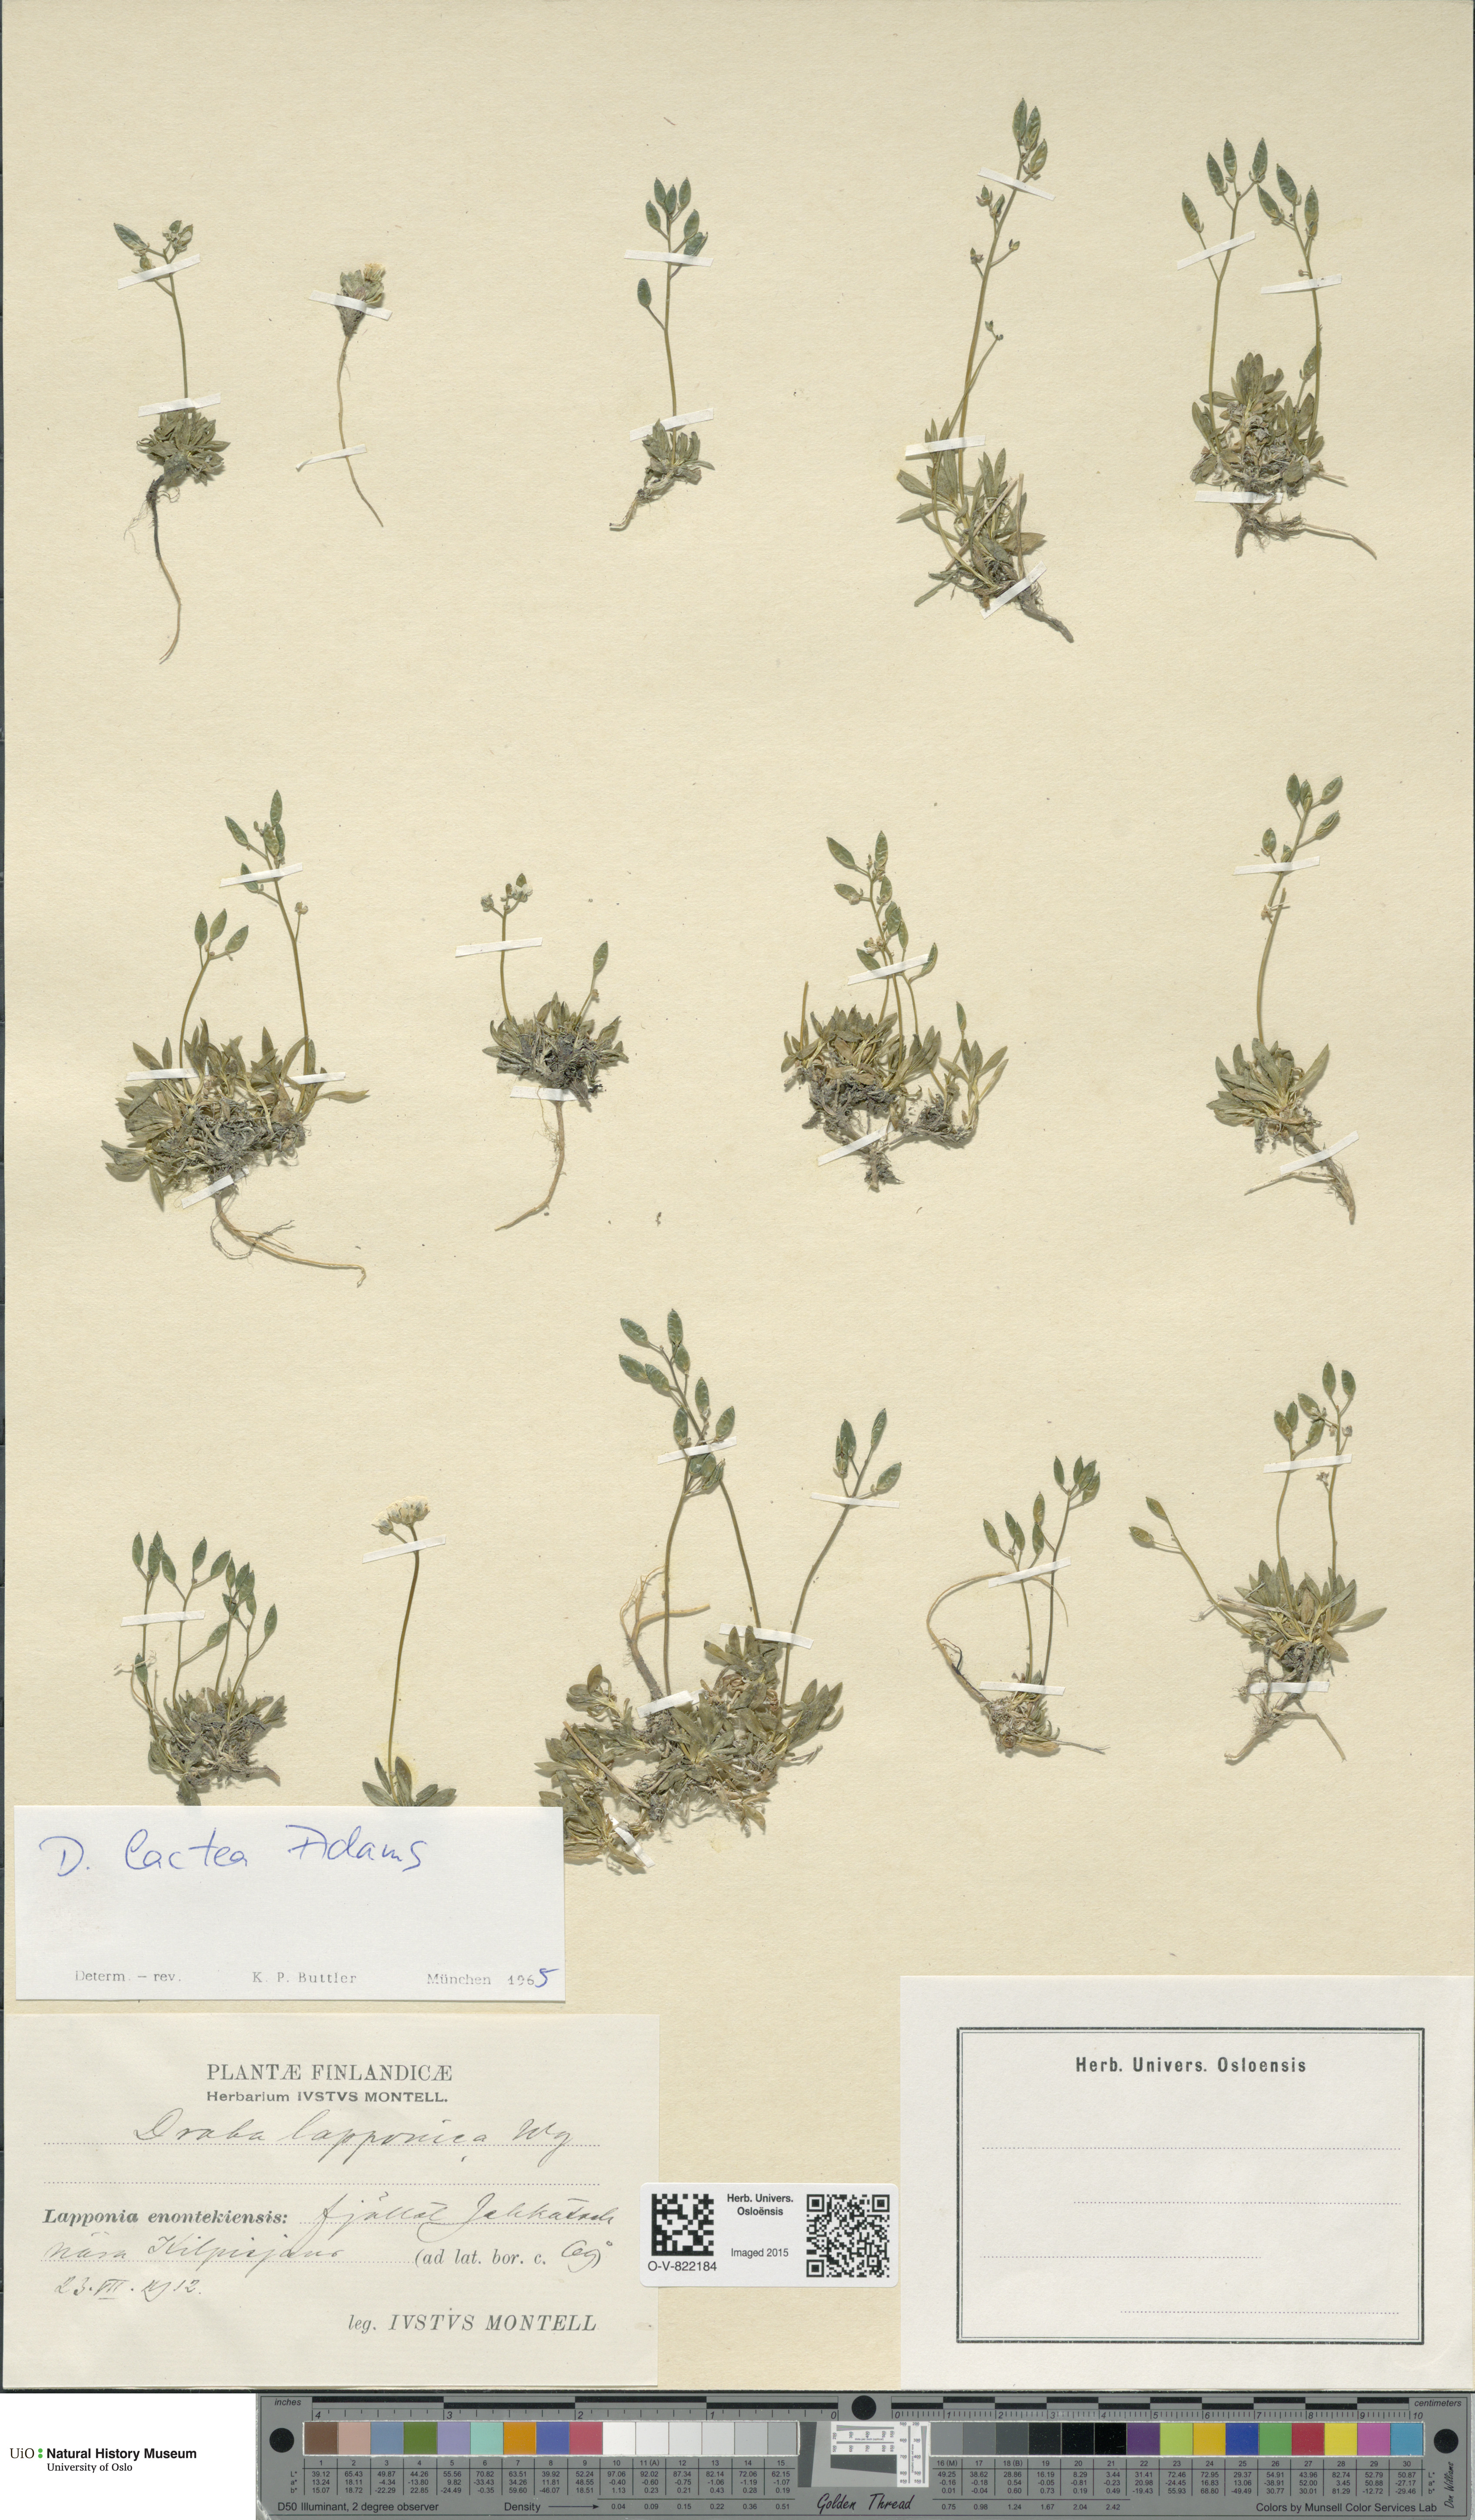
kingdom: Plantae
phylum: Tracheophyta
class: Magnoliopsida
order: Brassicales
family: Brassicaceae
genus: Draba
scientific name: Draba lactea
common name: Milky draba
